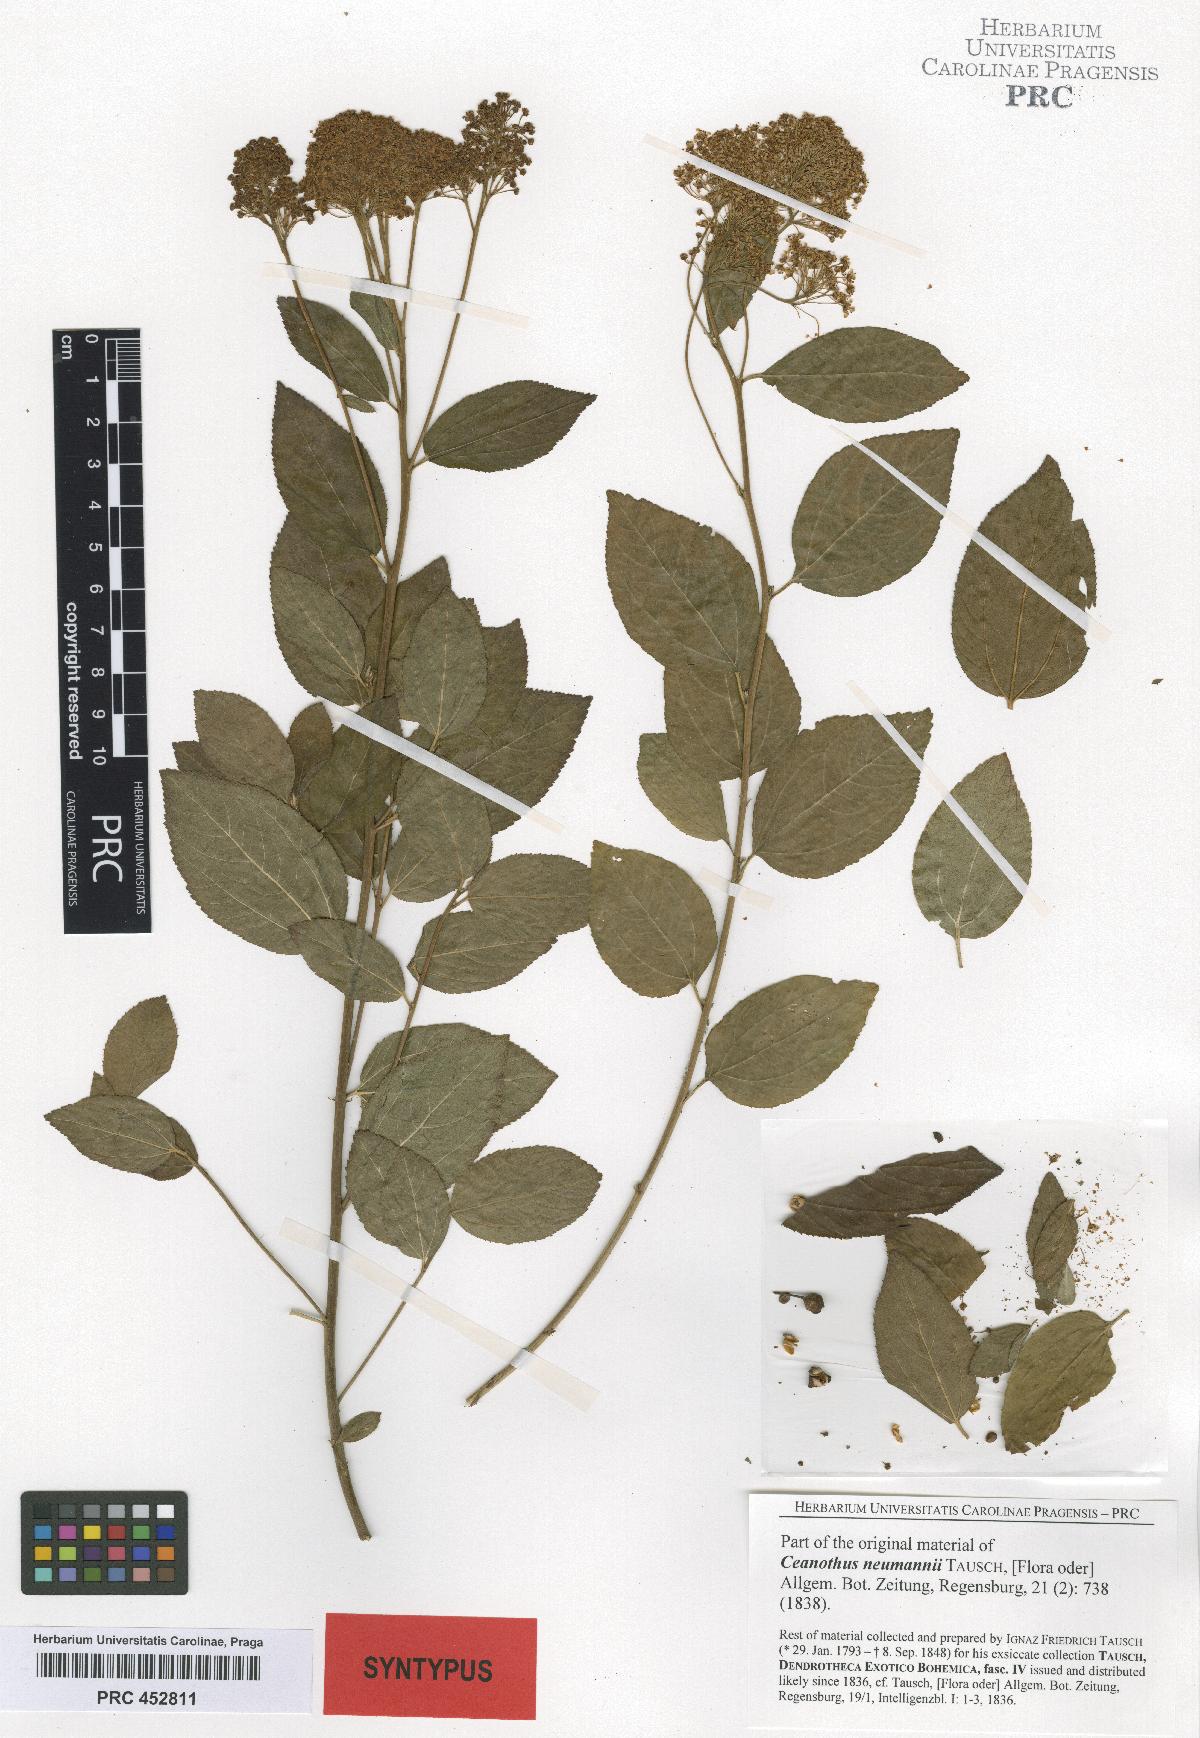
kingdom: Plantae
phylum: Tracheophyta
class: Magnoliopsida
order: Rosales
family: Rhamnaceae
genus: Ceanothus
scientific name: Ceanothus neumannii
